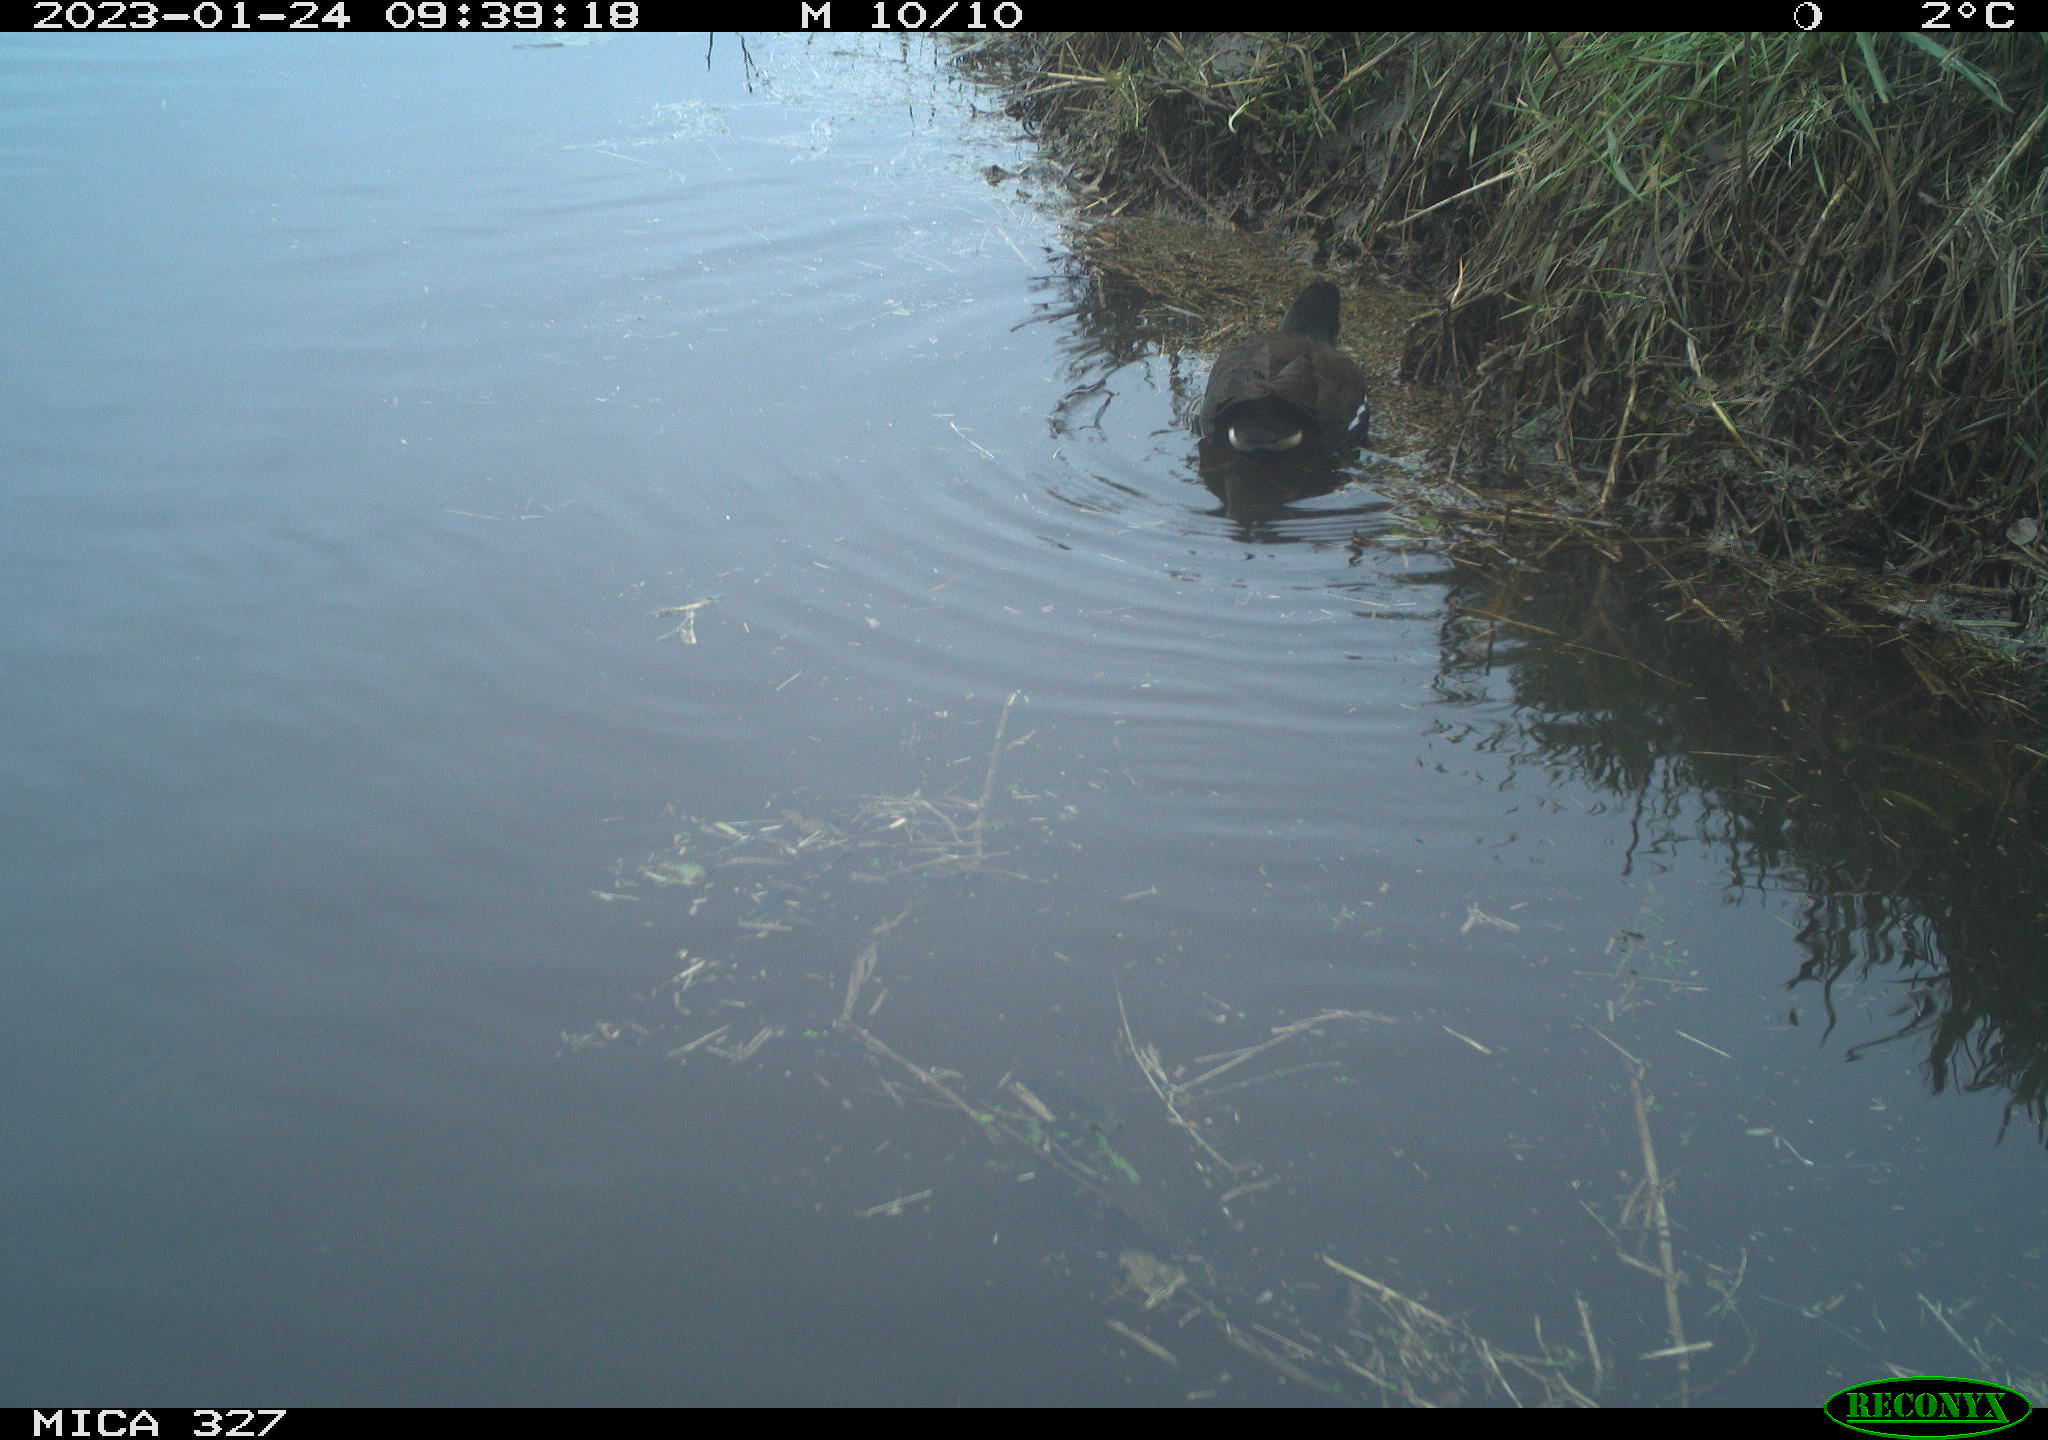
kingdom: Animalia
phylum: Chordata
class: Aves
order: Gruiformes
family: Rallidae
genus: Gallinula
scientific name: Gallinula chloropus
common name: Common moorhen
